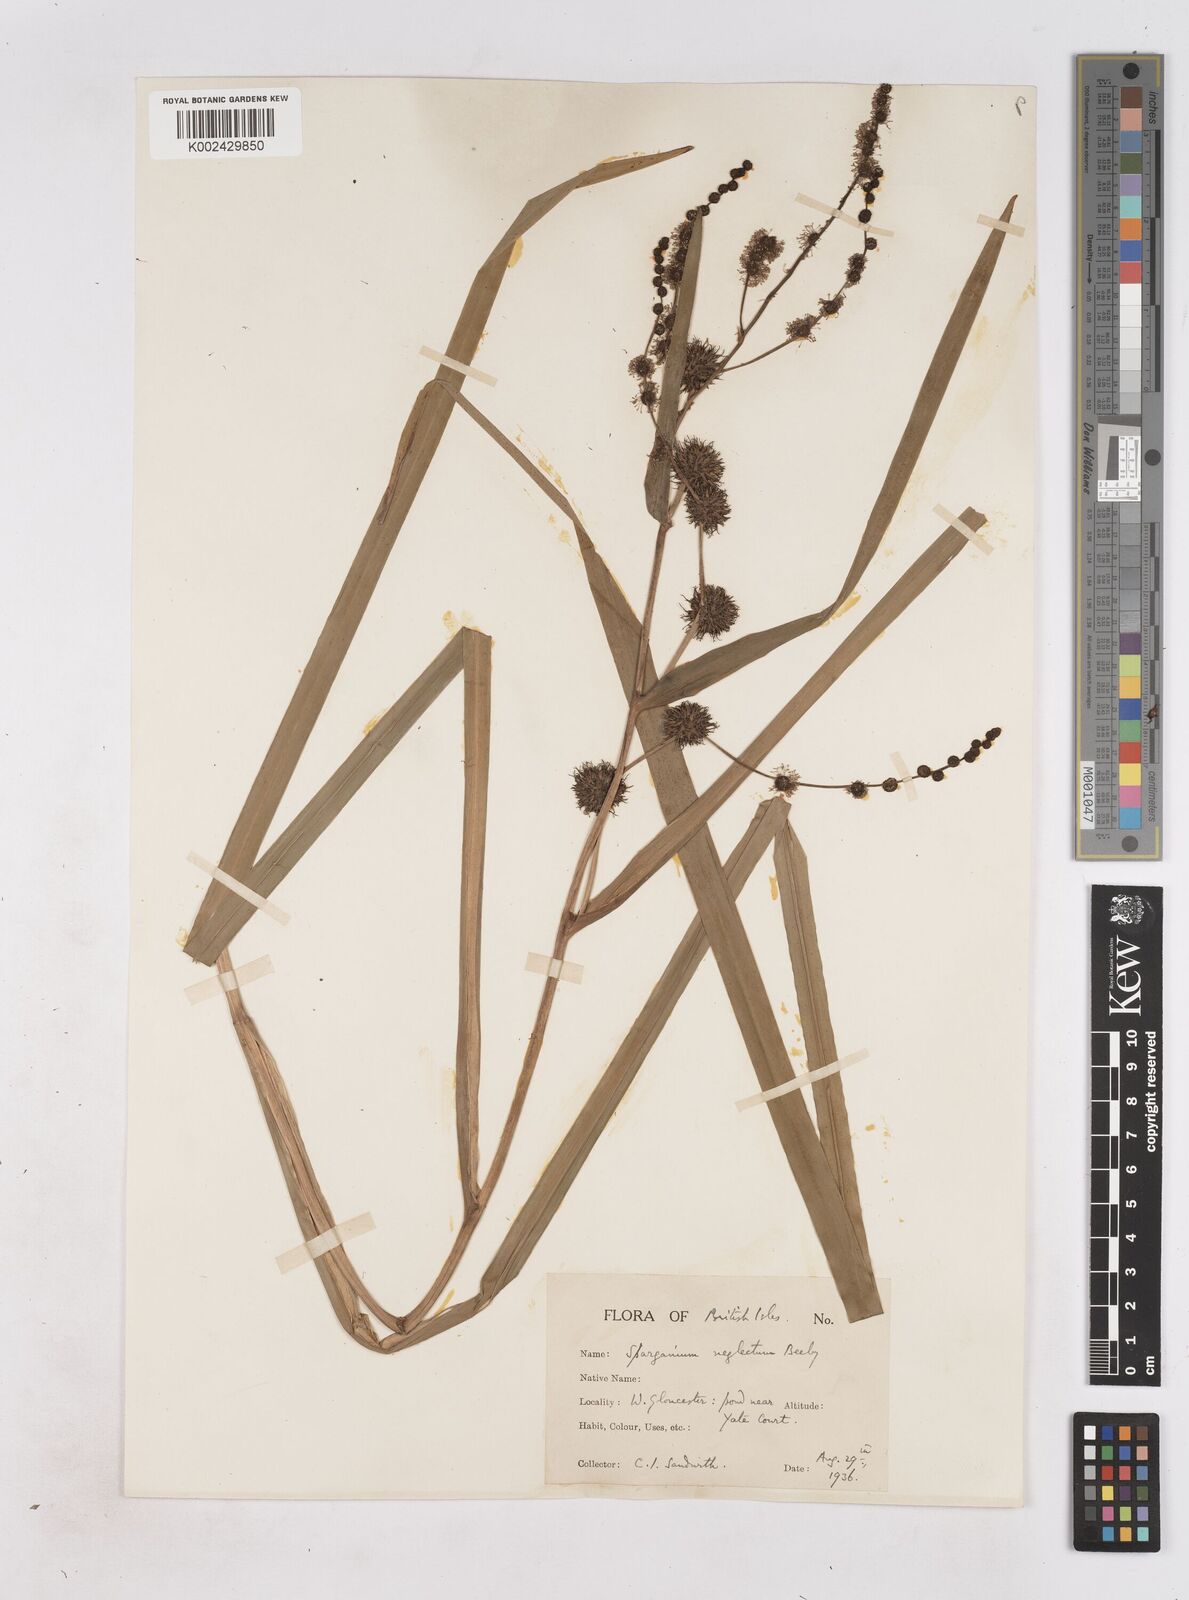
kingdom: Plantae
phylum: Tracheophyta
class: Liliopsida
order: Poales
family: Typhaceae
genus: Sparganium
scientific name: Sparganium erectum
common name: Branched bur-reed
